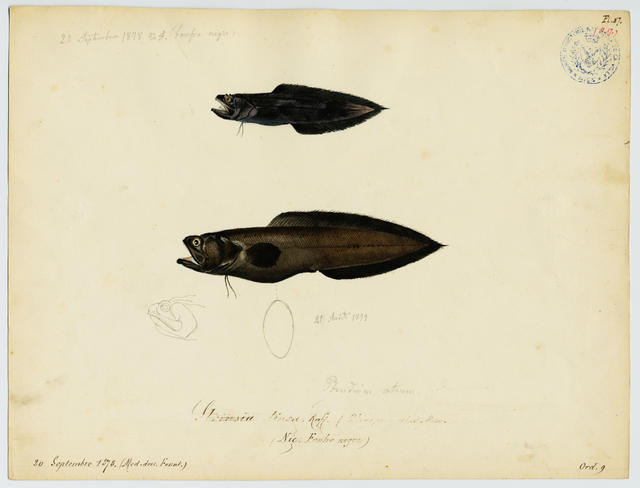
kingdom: Animalia
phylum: Chordata
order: Ophidiiformes
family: Bythitidae
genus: Grammonus
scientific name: Grammonus ater
